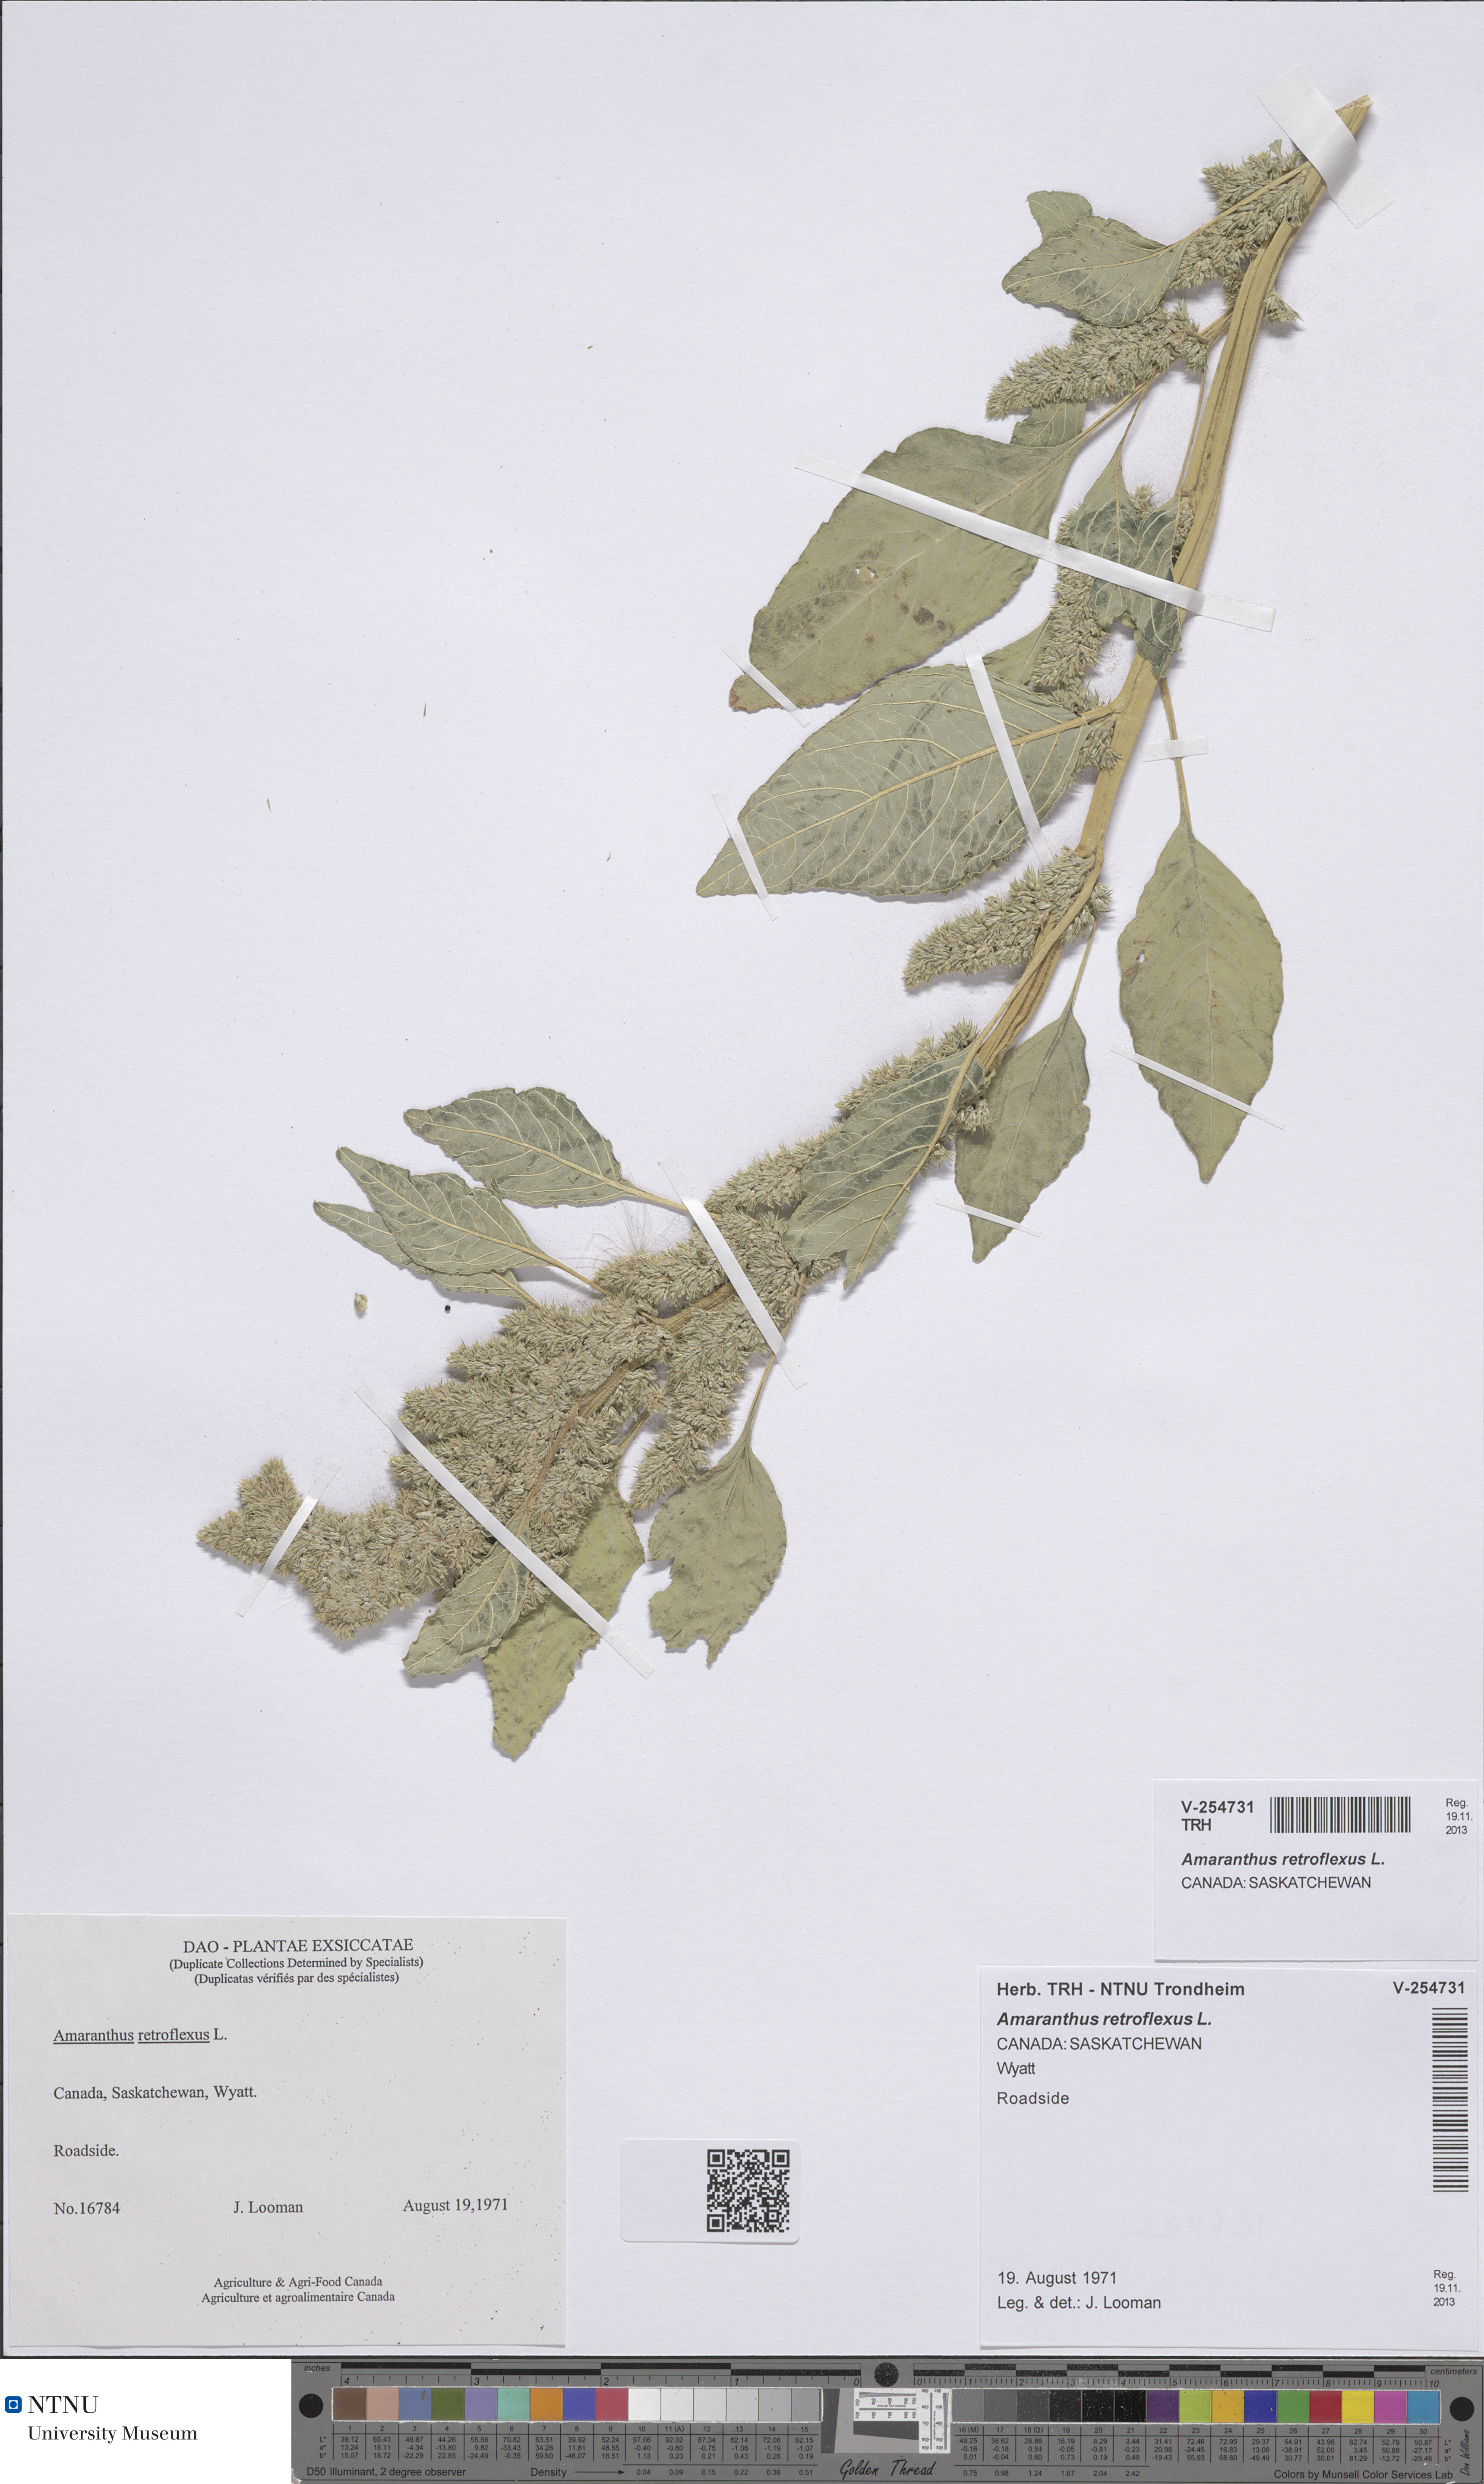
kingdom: Plantae
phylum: Tracheophyta
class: Magnoliopsida
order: Caryophyllales
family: Amaranthaceae
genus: Amaranthus
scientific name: Amaranthus retroflexus
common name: Redroot amaranth
